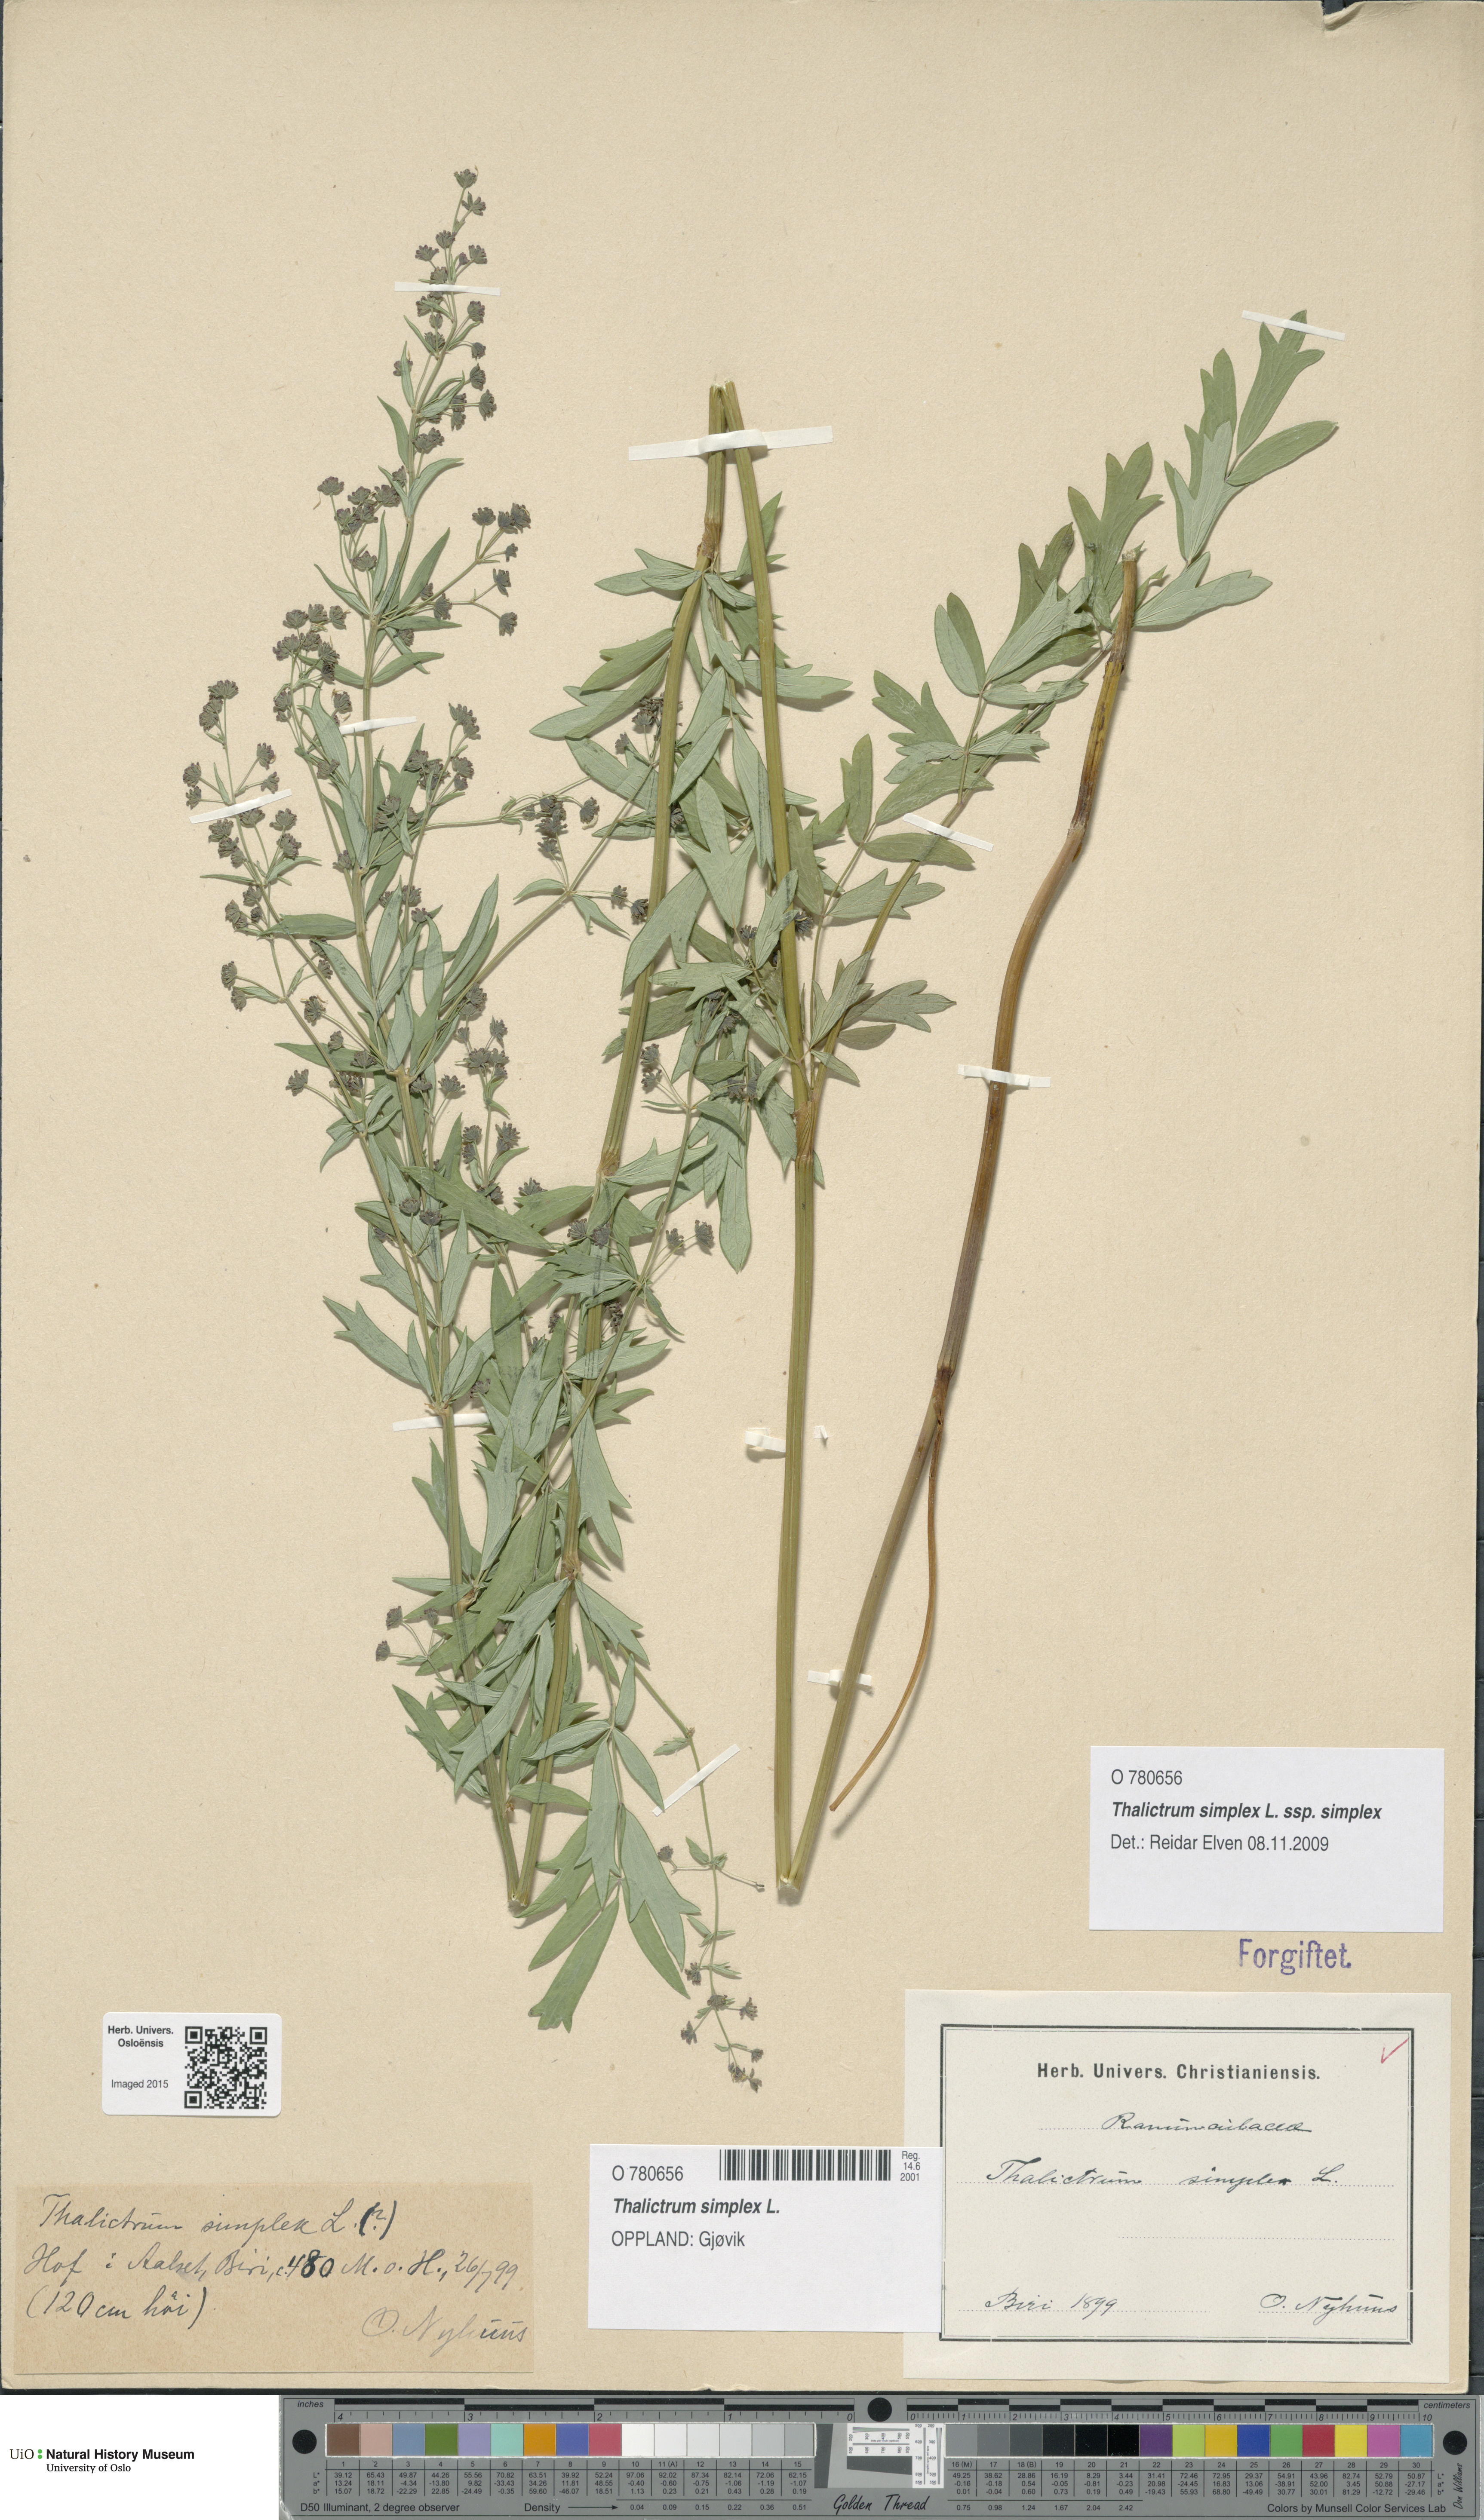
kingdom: Plantae
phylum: Tracheophyta
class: Magnoliopsida
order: Ranunculales
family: Ranunculaceae
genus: Thalictrum
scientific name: Thalictrum simplex
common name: Small meadow-rue
